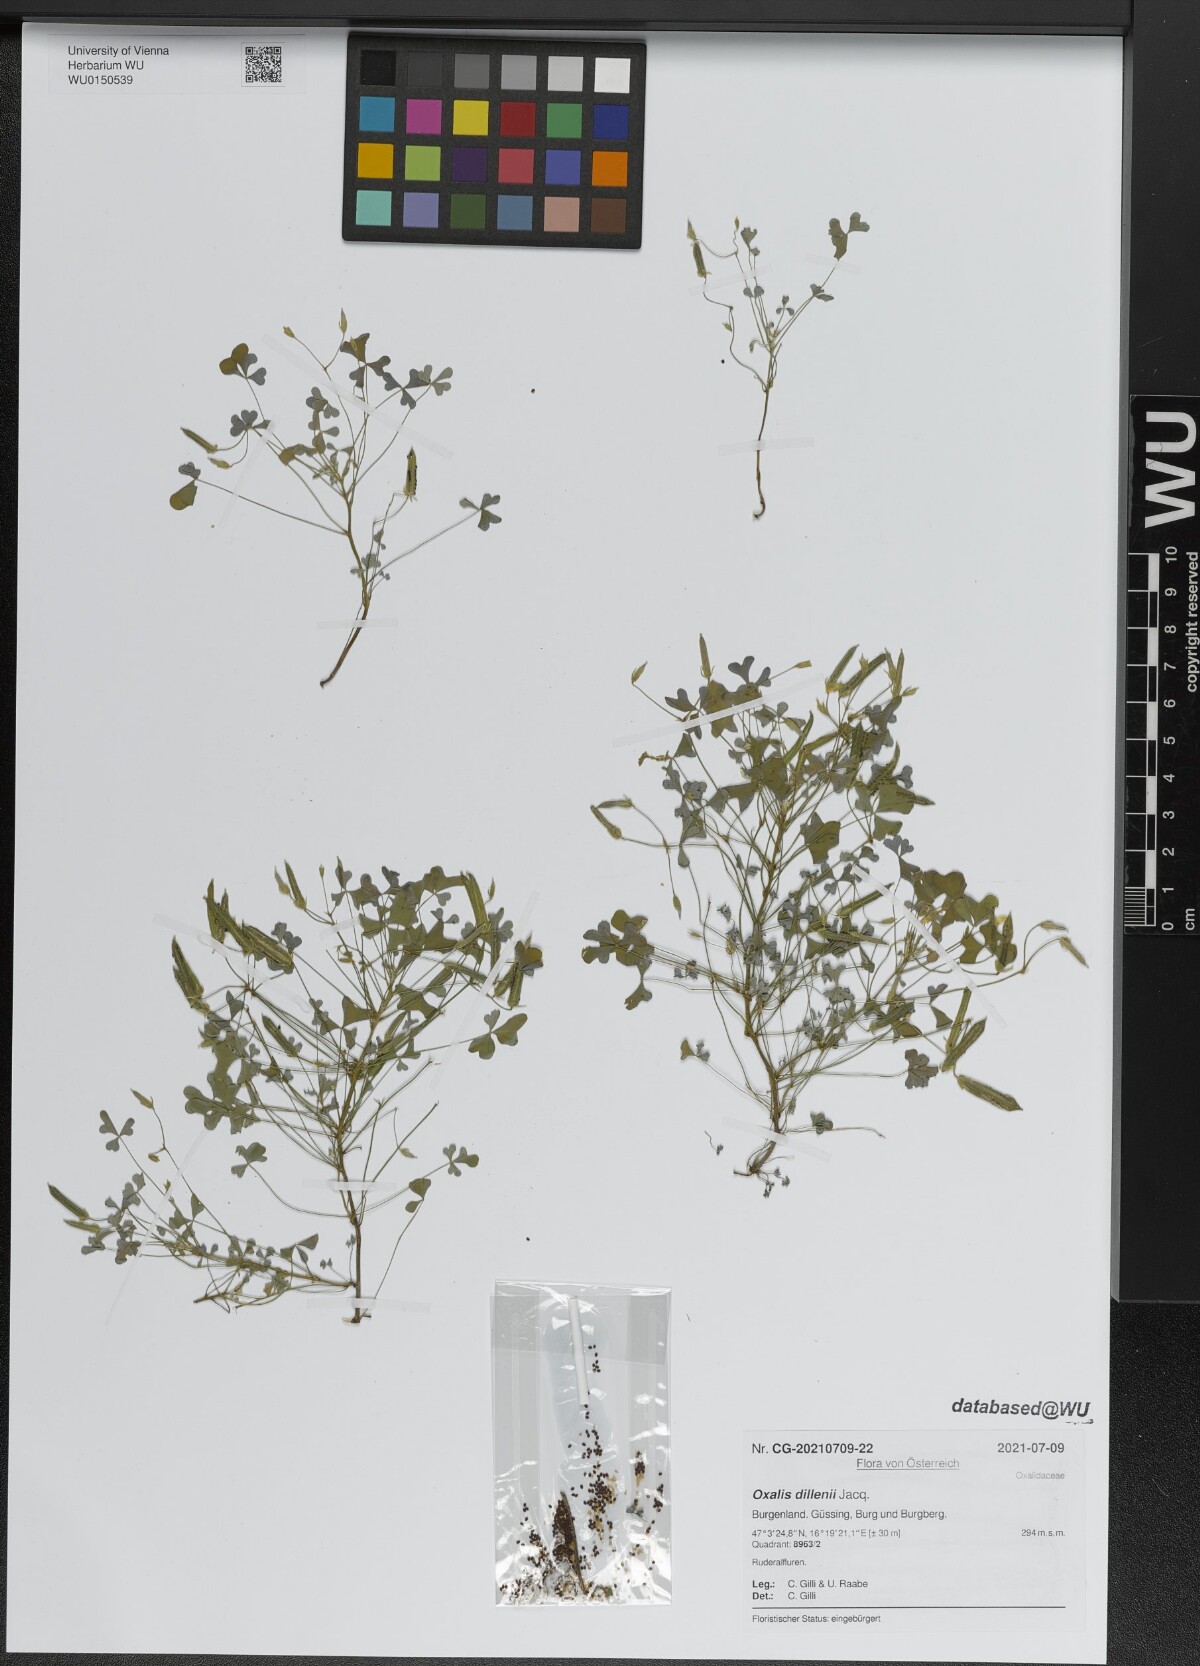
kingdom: Plantae
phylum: Tracheophyta
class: Magnoliopsida
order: Oxalidales
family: Oxalidaceae
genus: Oxalis
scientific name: Oxalis dillenii
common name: Sussex yellow-sorrel
